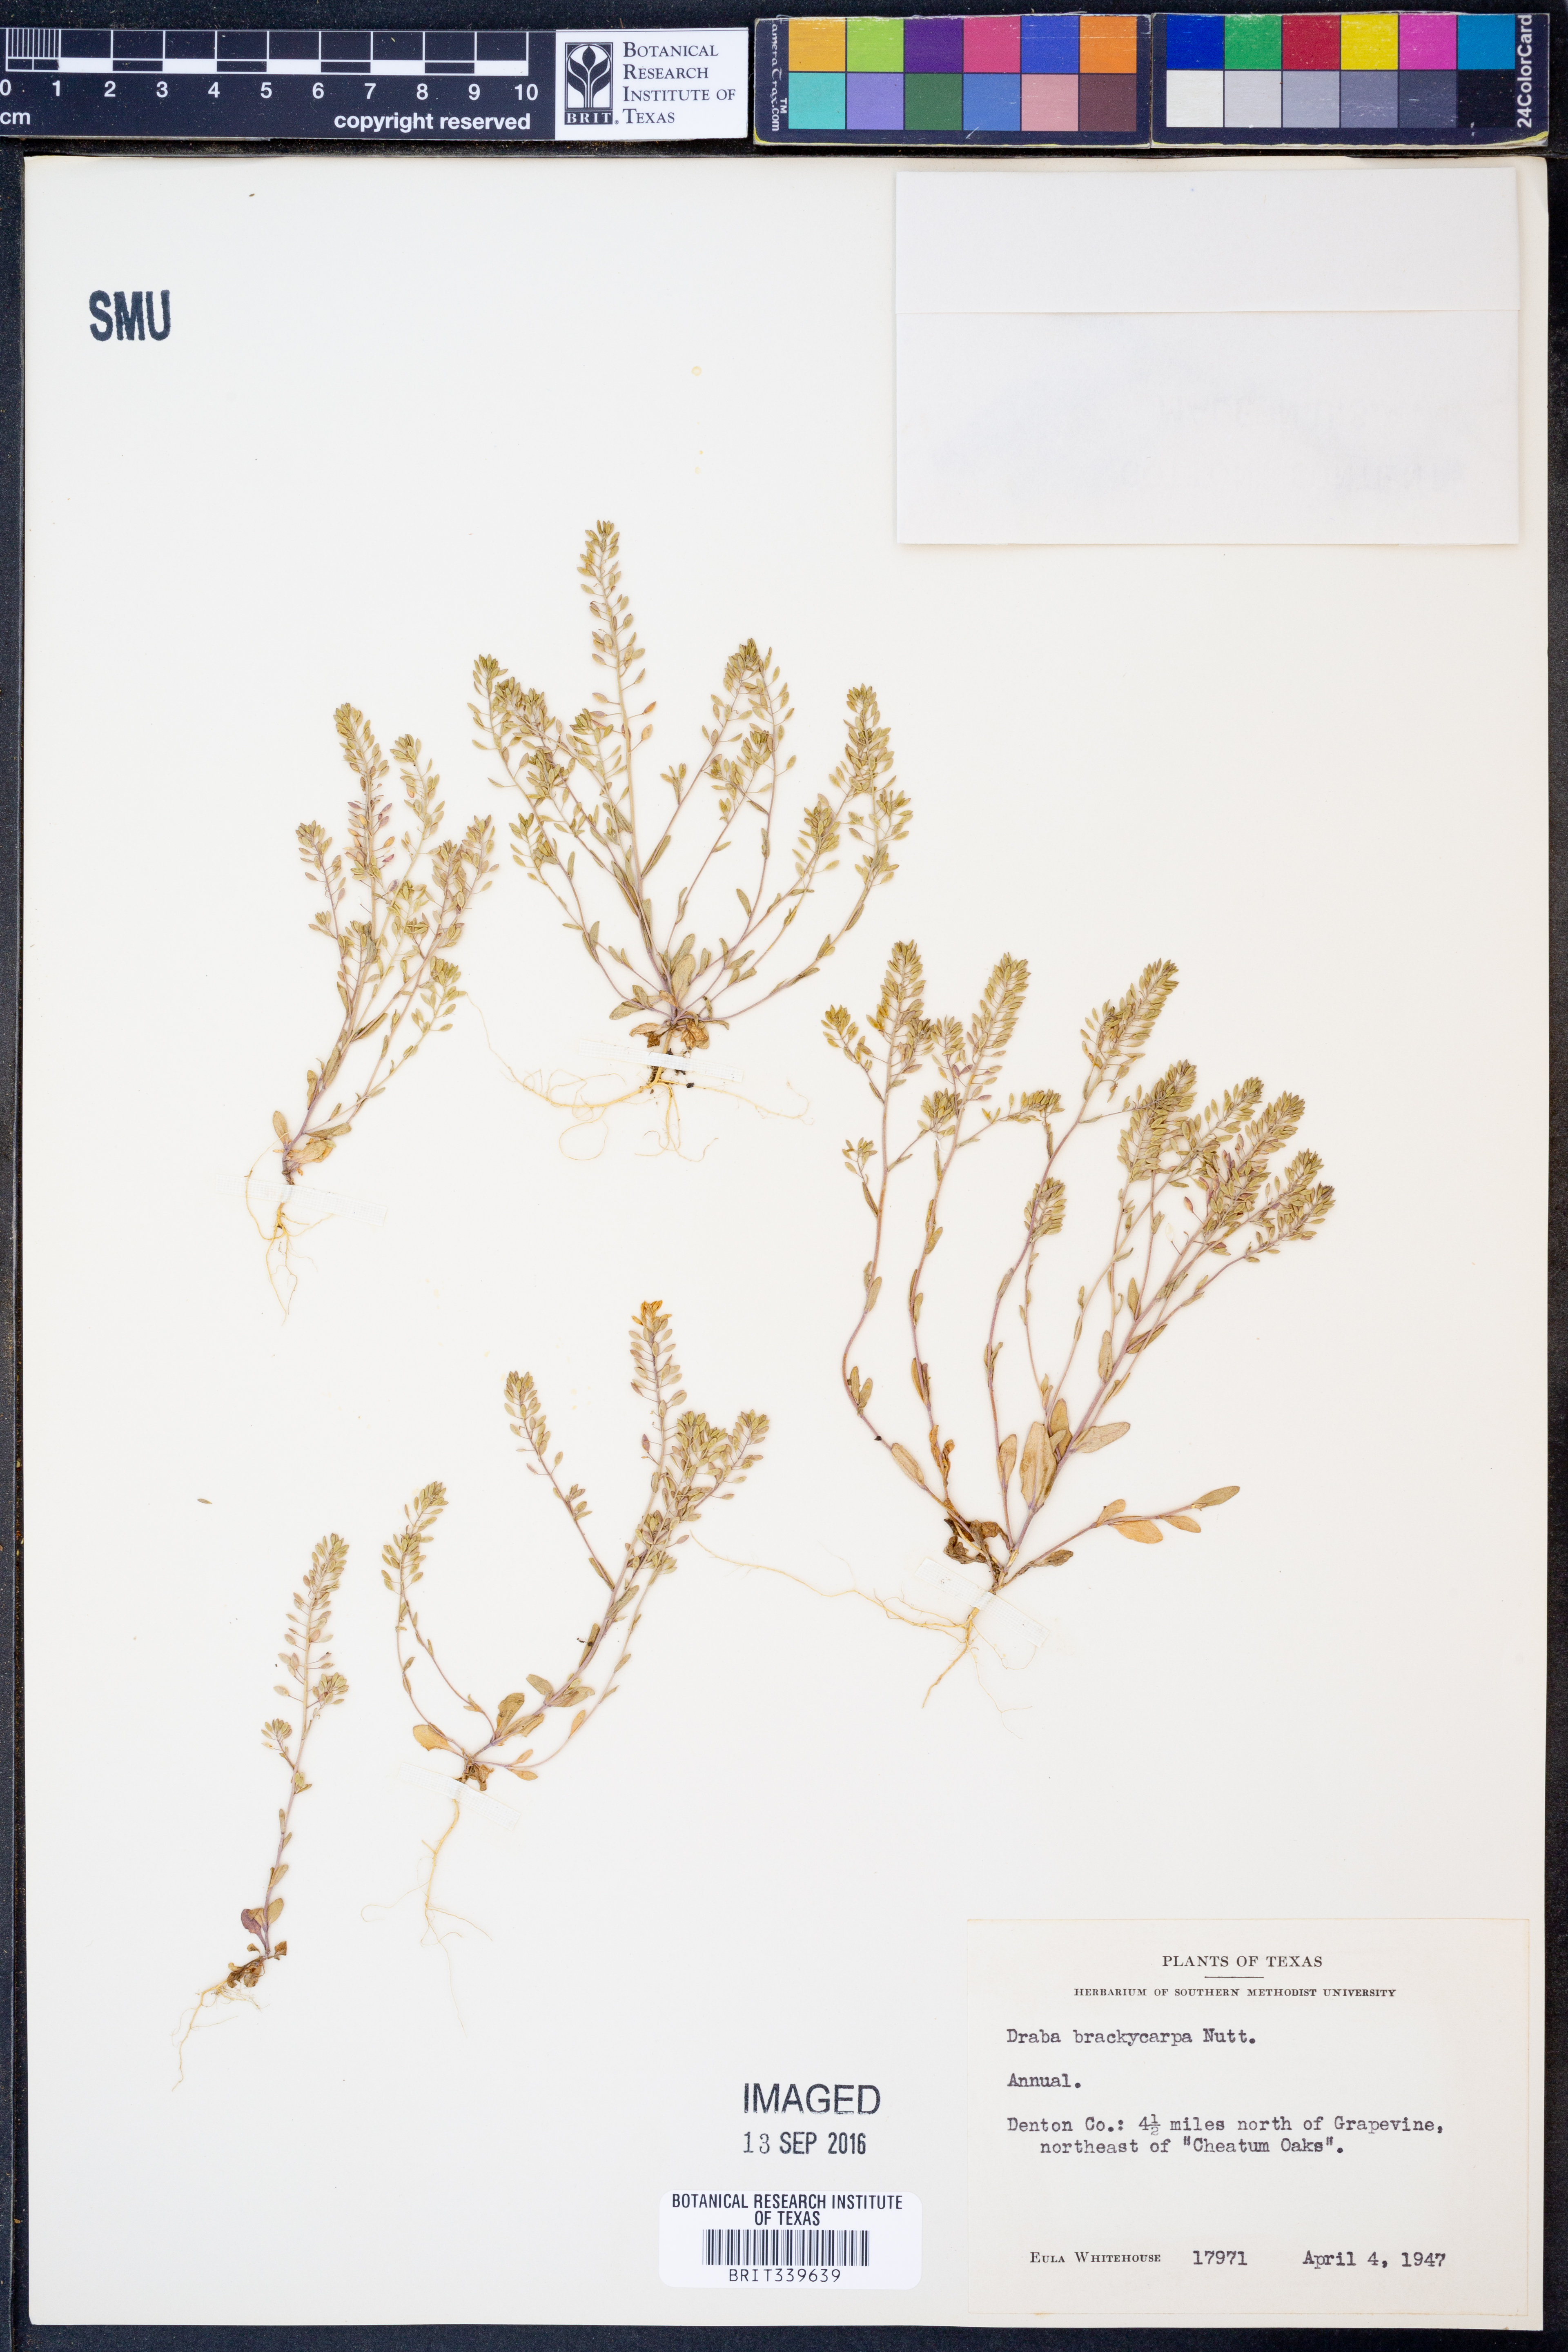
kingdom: Plantae
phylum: Tracheophyta
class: Magnoliopsida
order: Brassicales
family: Brassicaceae
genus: Abdra
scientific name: Abdra brachycarpa
